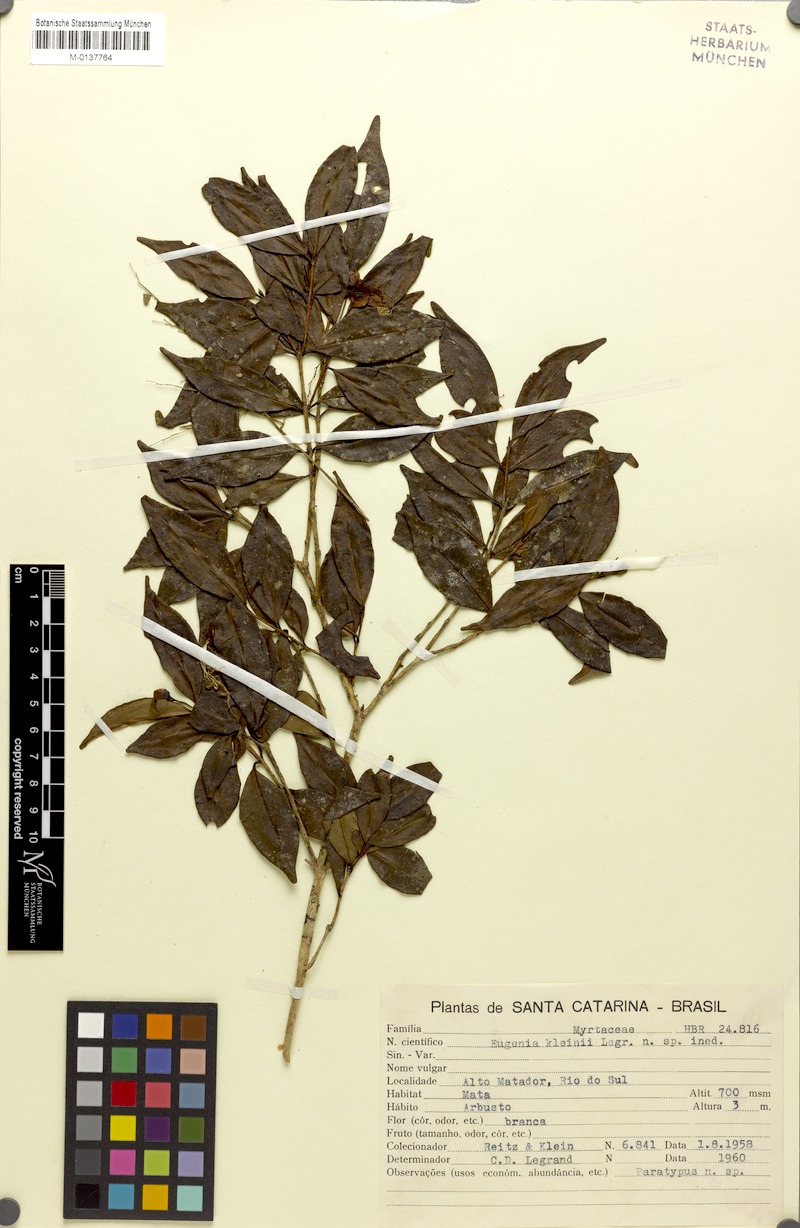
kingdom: Plantae
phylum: Tracheophyta
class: Magnoliopsida
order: Myrtales
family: Myrtaceae
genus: Eugenia
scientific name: Eugenia kleinii
